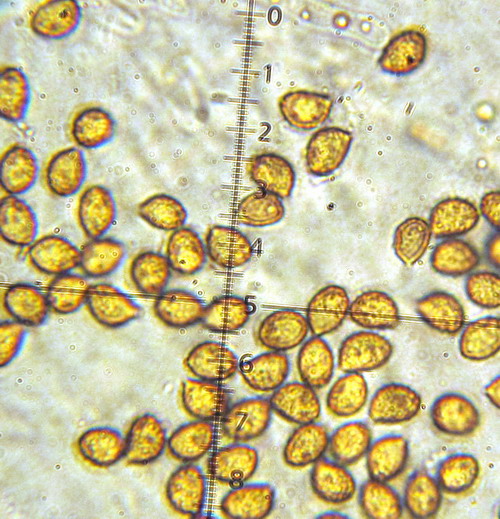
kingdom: Fungi
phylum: Basidiomycota
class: Agaricomycetes
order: Agaricales
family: Cortinariaceae
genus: Cortinarius
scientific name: Cortinarius
